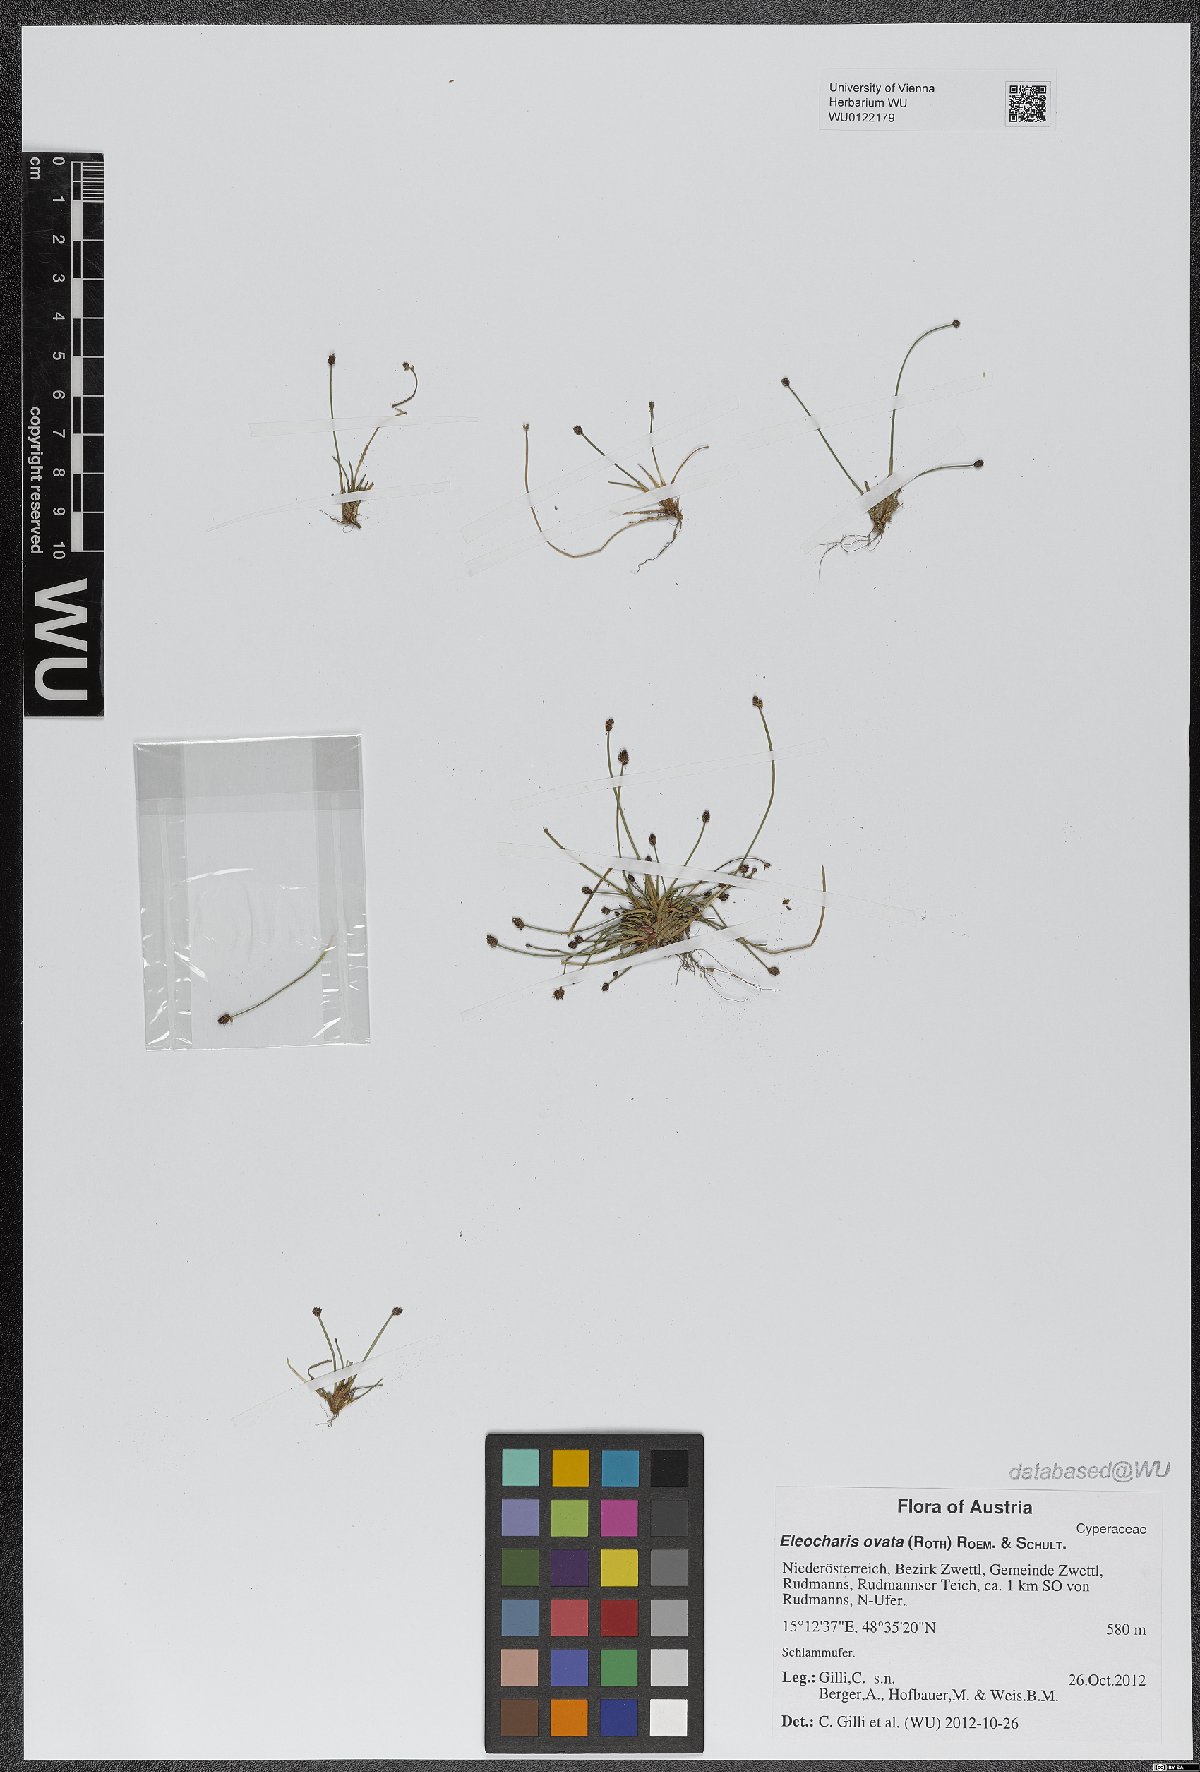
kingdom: Plantae
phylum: Tracheophyta
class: Liliopsida
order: Poales
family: Cyperaceae
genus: Eleocharis
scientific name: Eleocharis ovata
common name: Oval spike-rush
